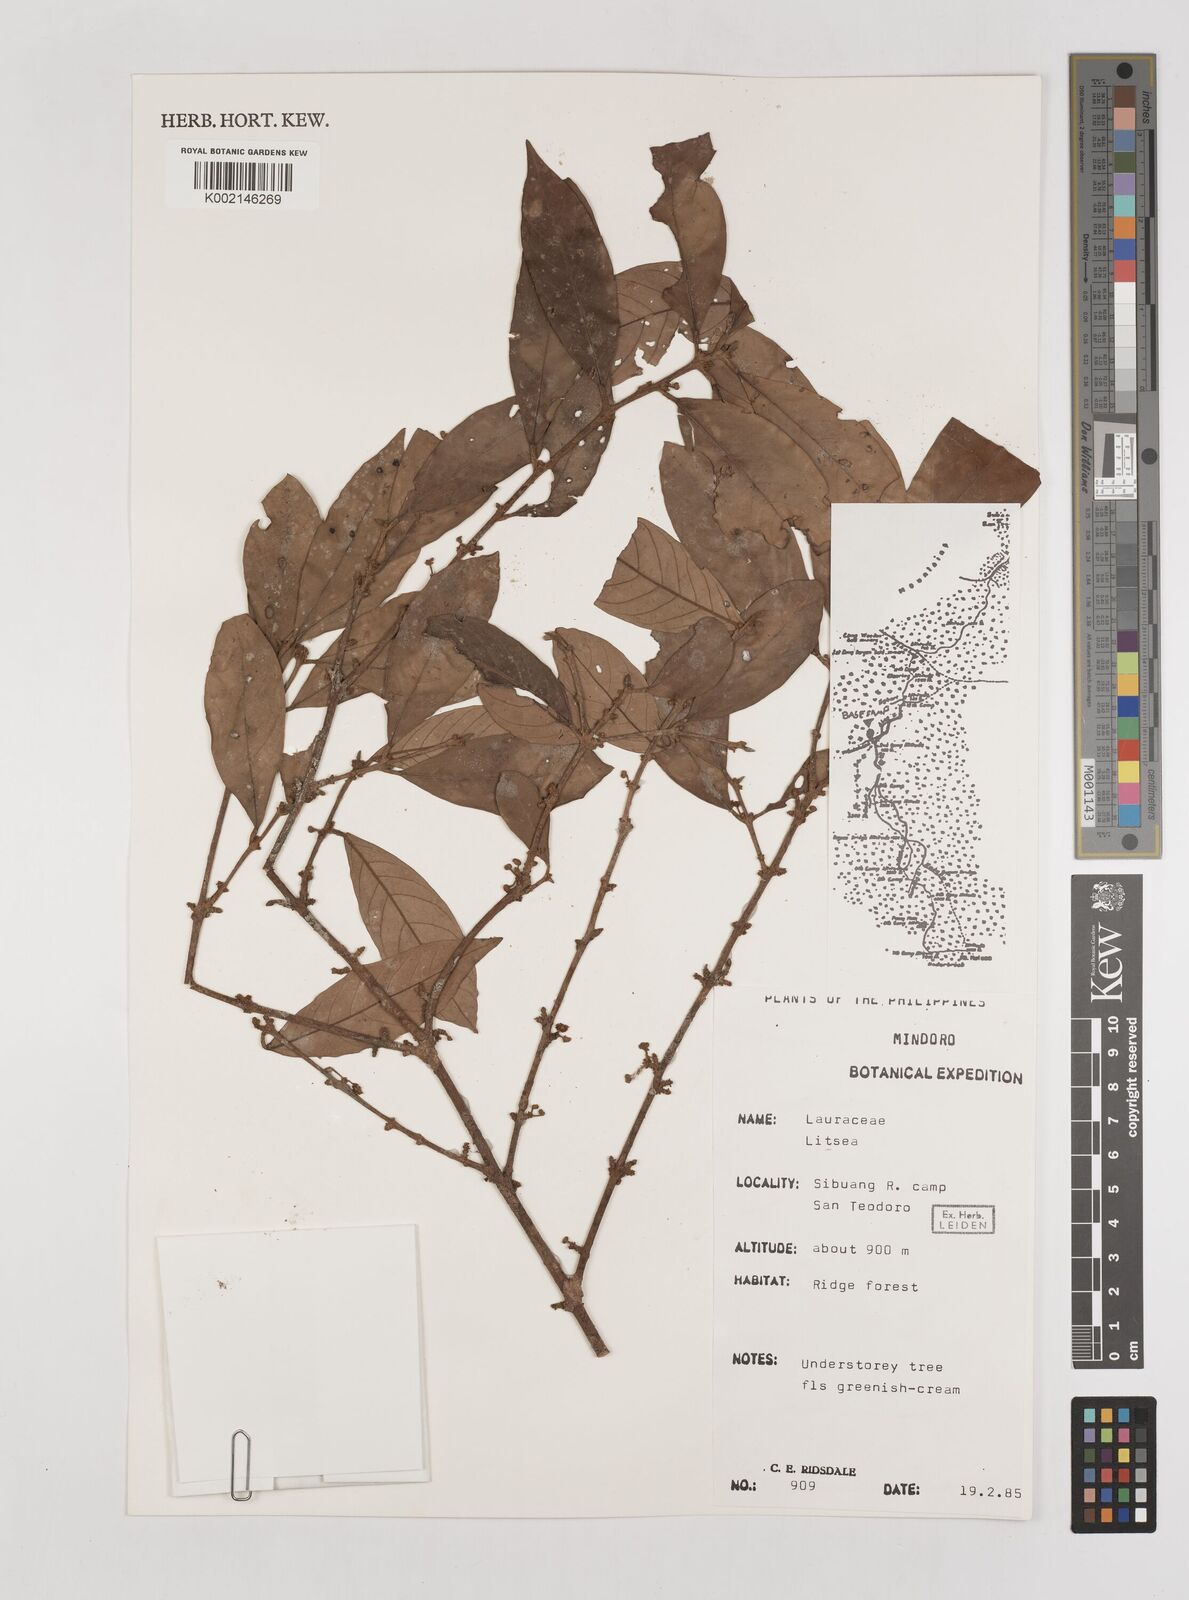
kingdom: Plantae
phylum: Tracheophyta
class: Magnoliopsida
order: Laurales
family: Lauraceae
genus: Litsea
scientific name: Litsea
